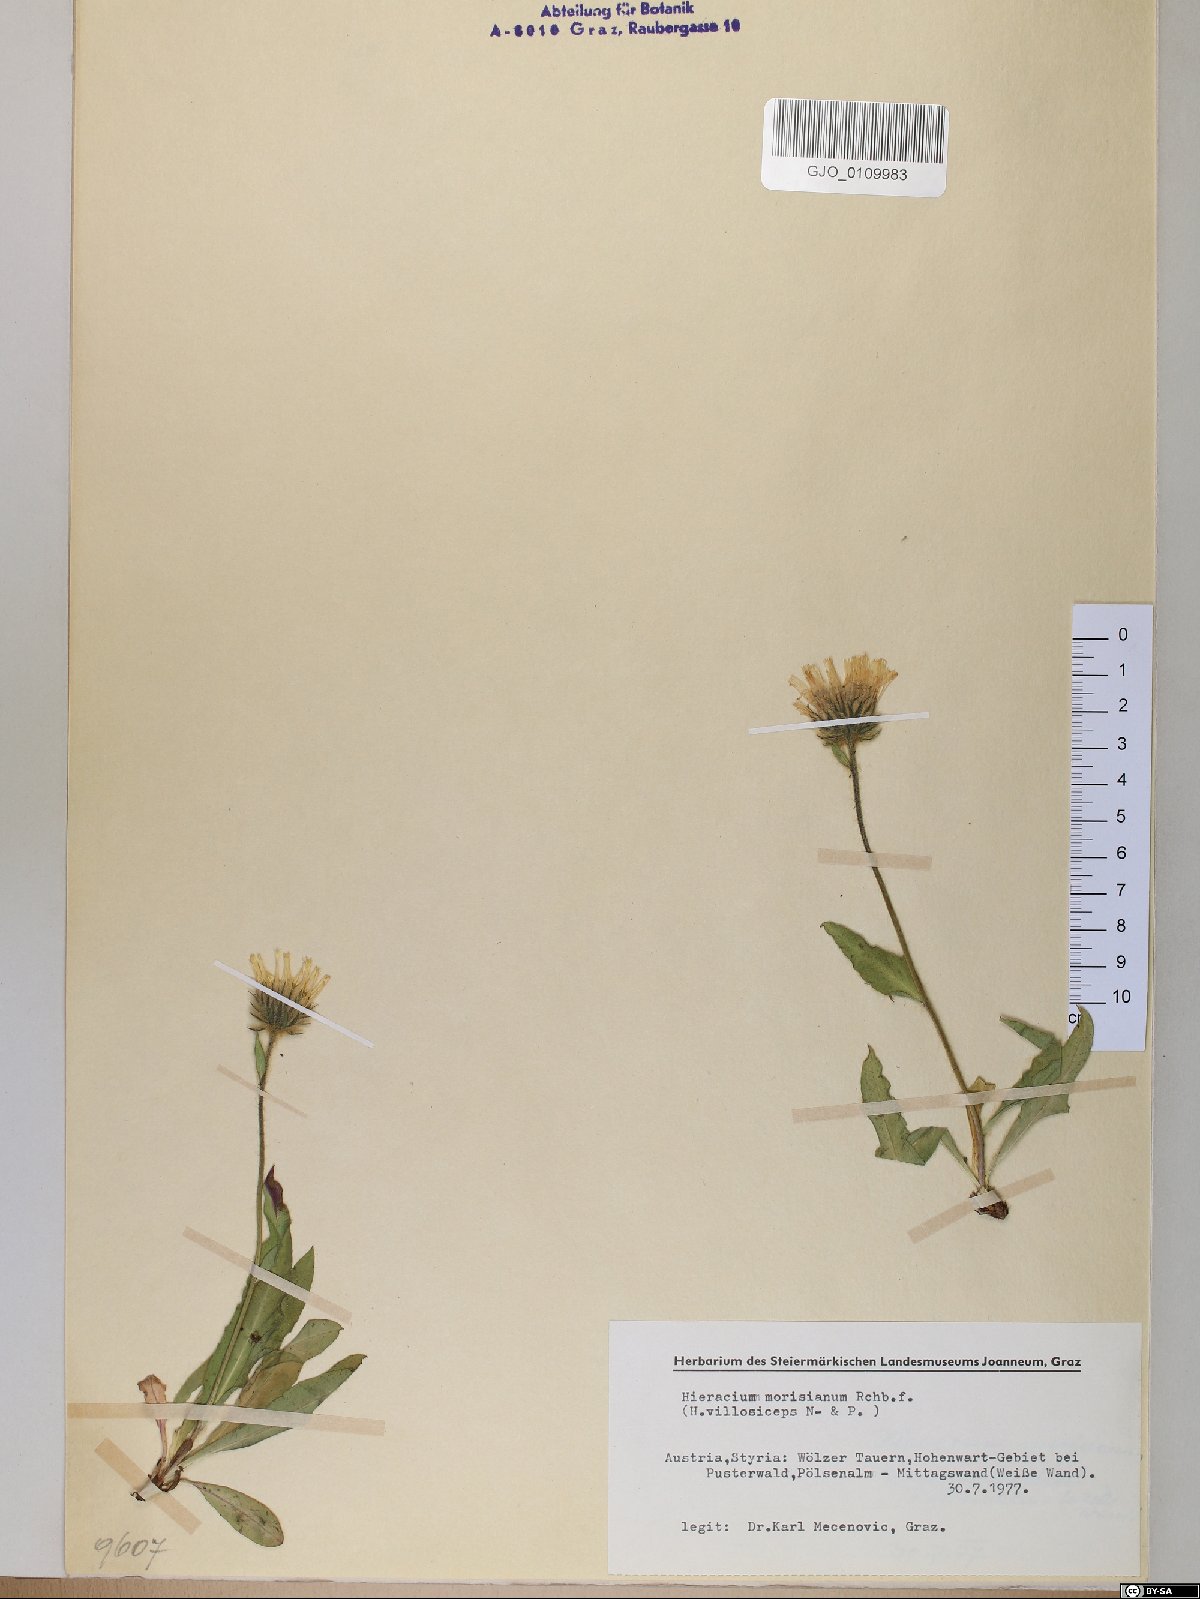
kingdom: Plantae
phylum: Tracheophyta
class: Magnoliopsida
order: Asterales
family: Asteraceae
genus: Hieracium
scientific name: Hieracium pilosum
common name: Fimbriate-pitted hawkweed
